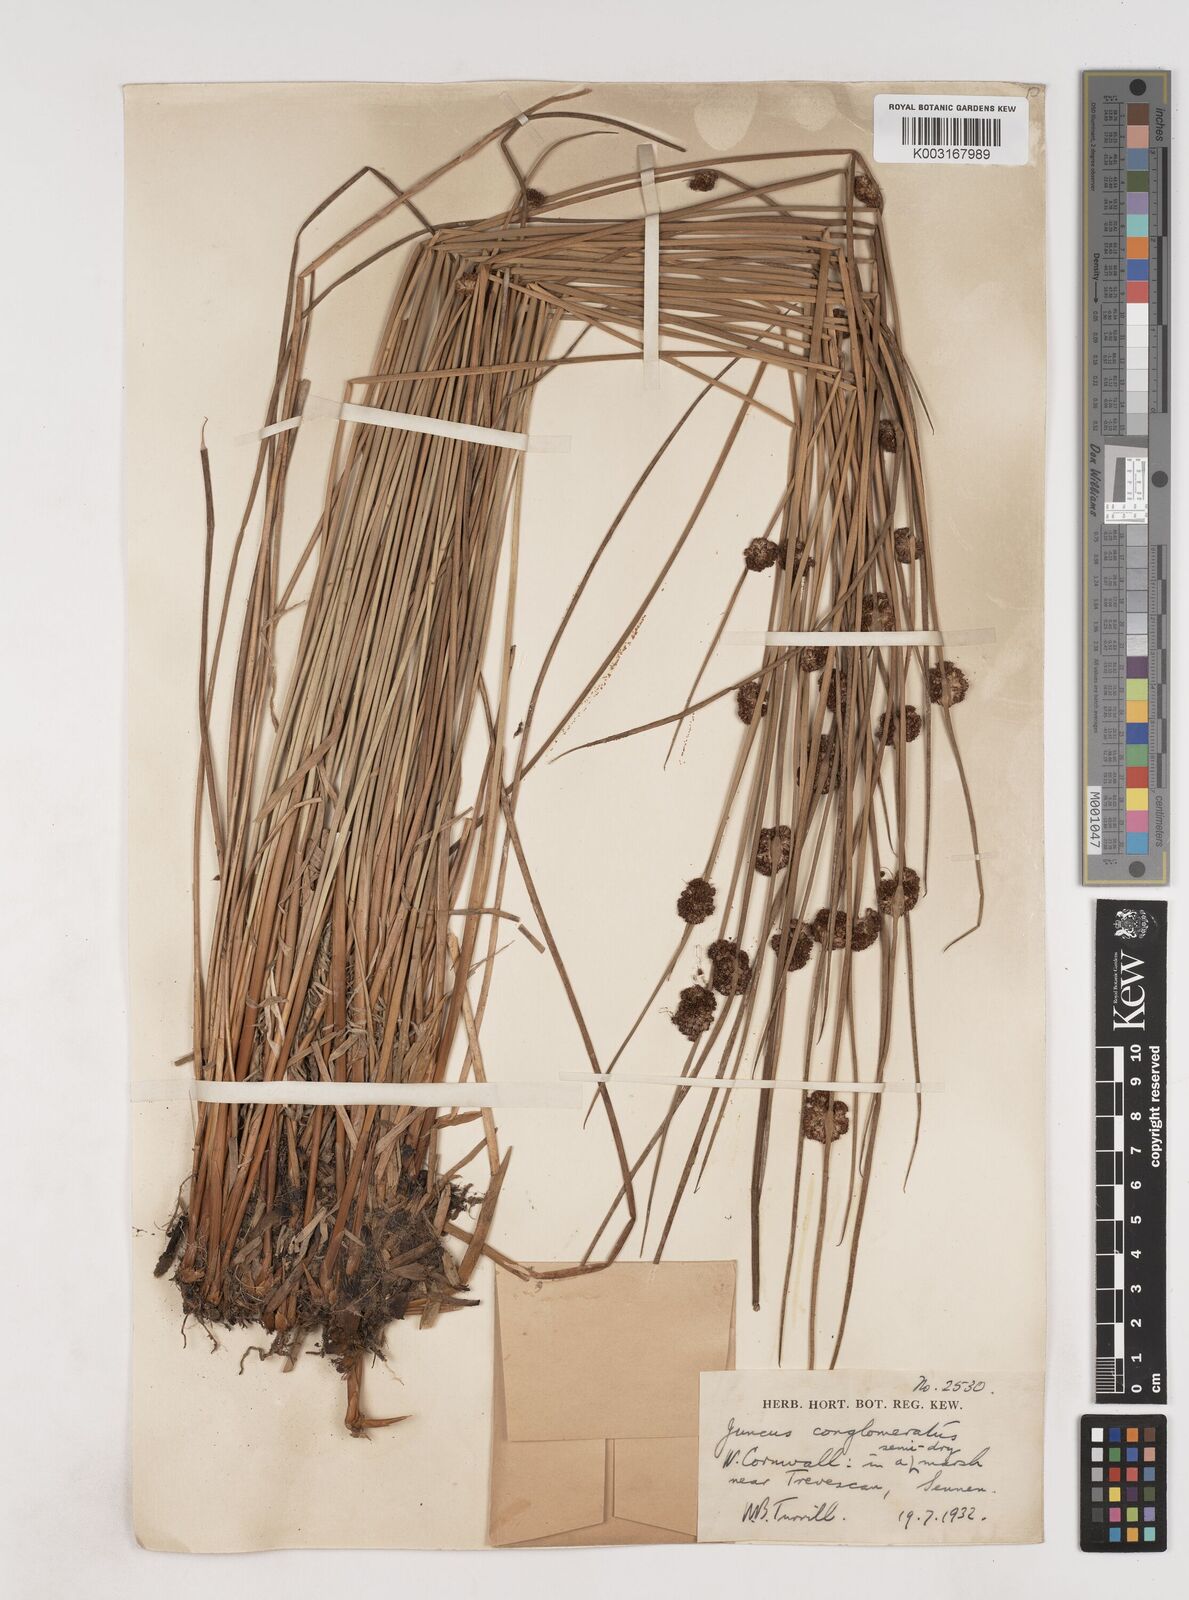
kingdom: Plantae
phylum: Tracheophyta
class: Liliopsida
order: Poales
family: Juncaceae
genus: Juncus
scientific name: Juncus conglomeratus
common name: Compact rush
